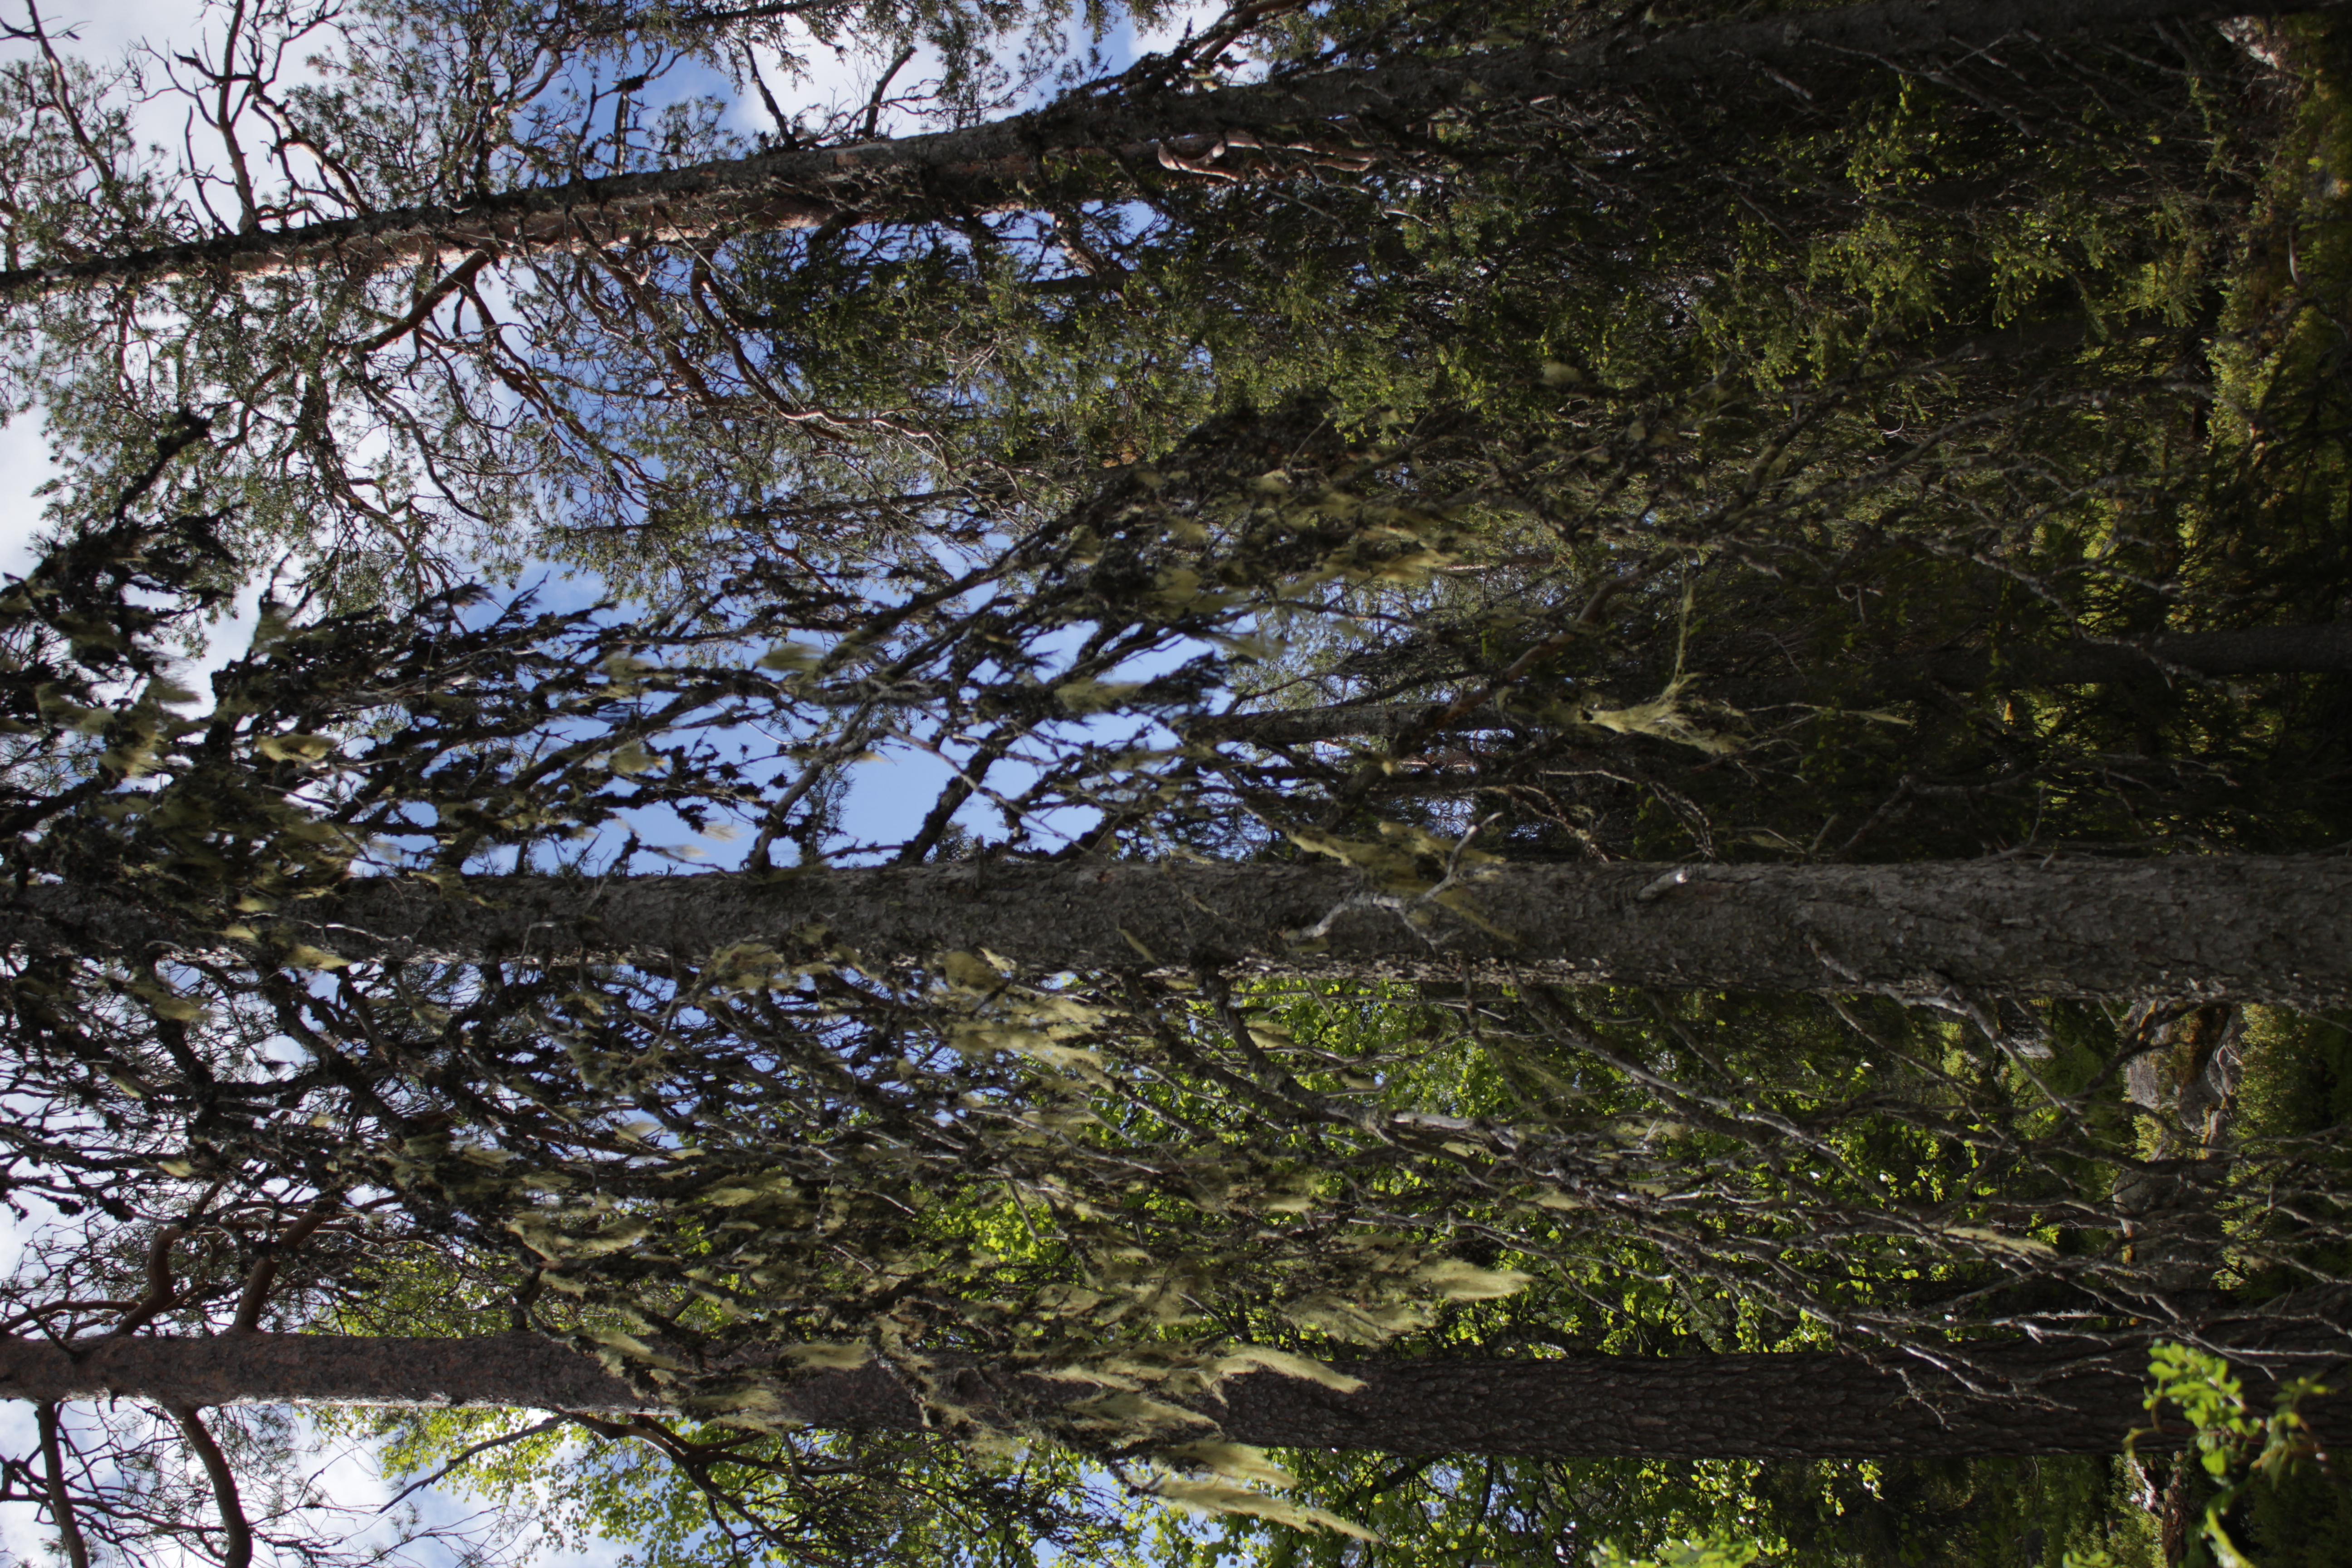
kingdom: Fungi
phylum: Ascomycota
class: Lecanoromycetes
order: Lecanorales
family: Parmeliaceae
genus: Usnea
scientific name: Usnea dasopoga
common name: Fishbone beard lichen
